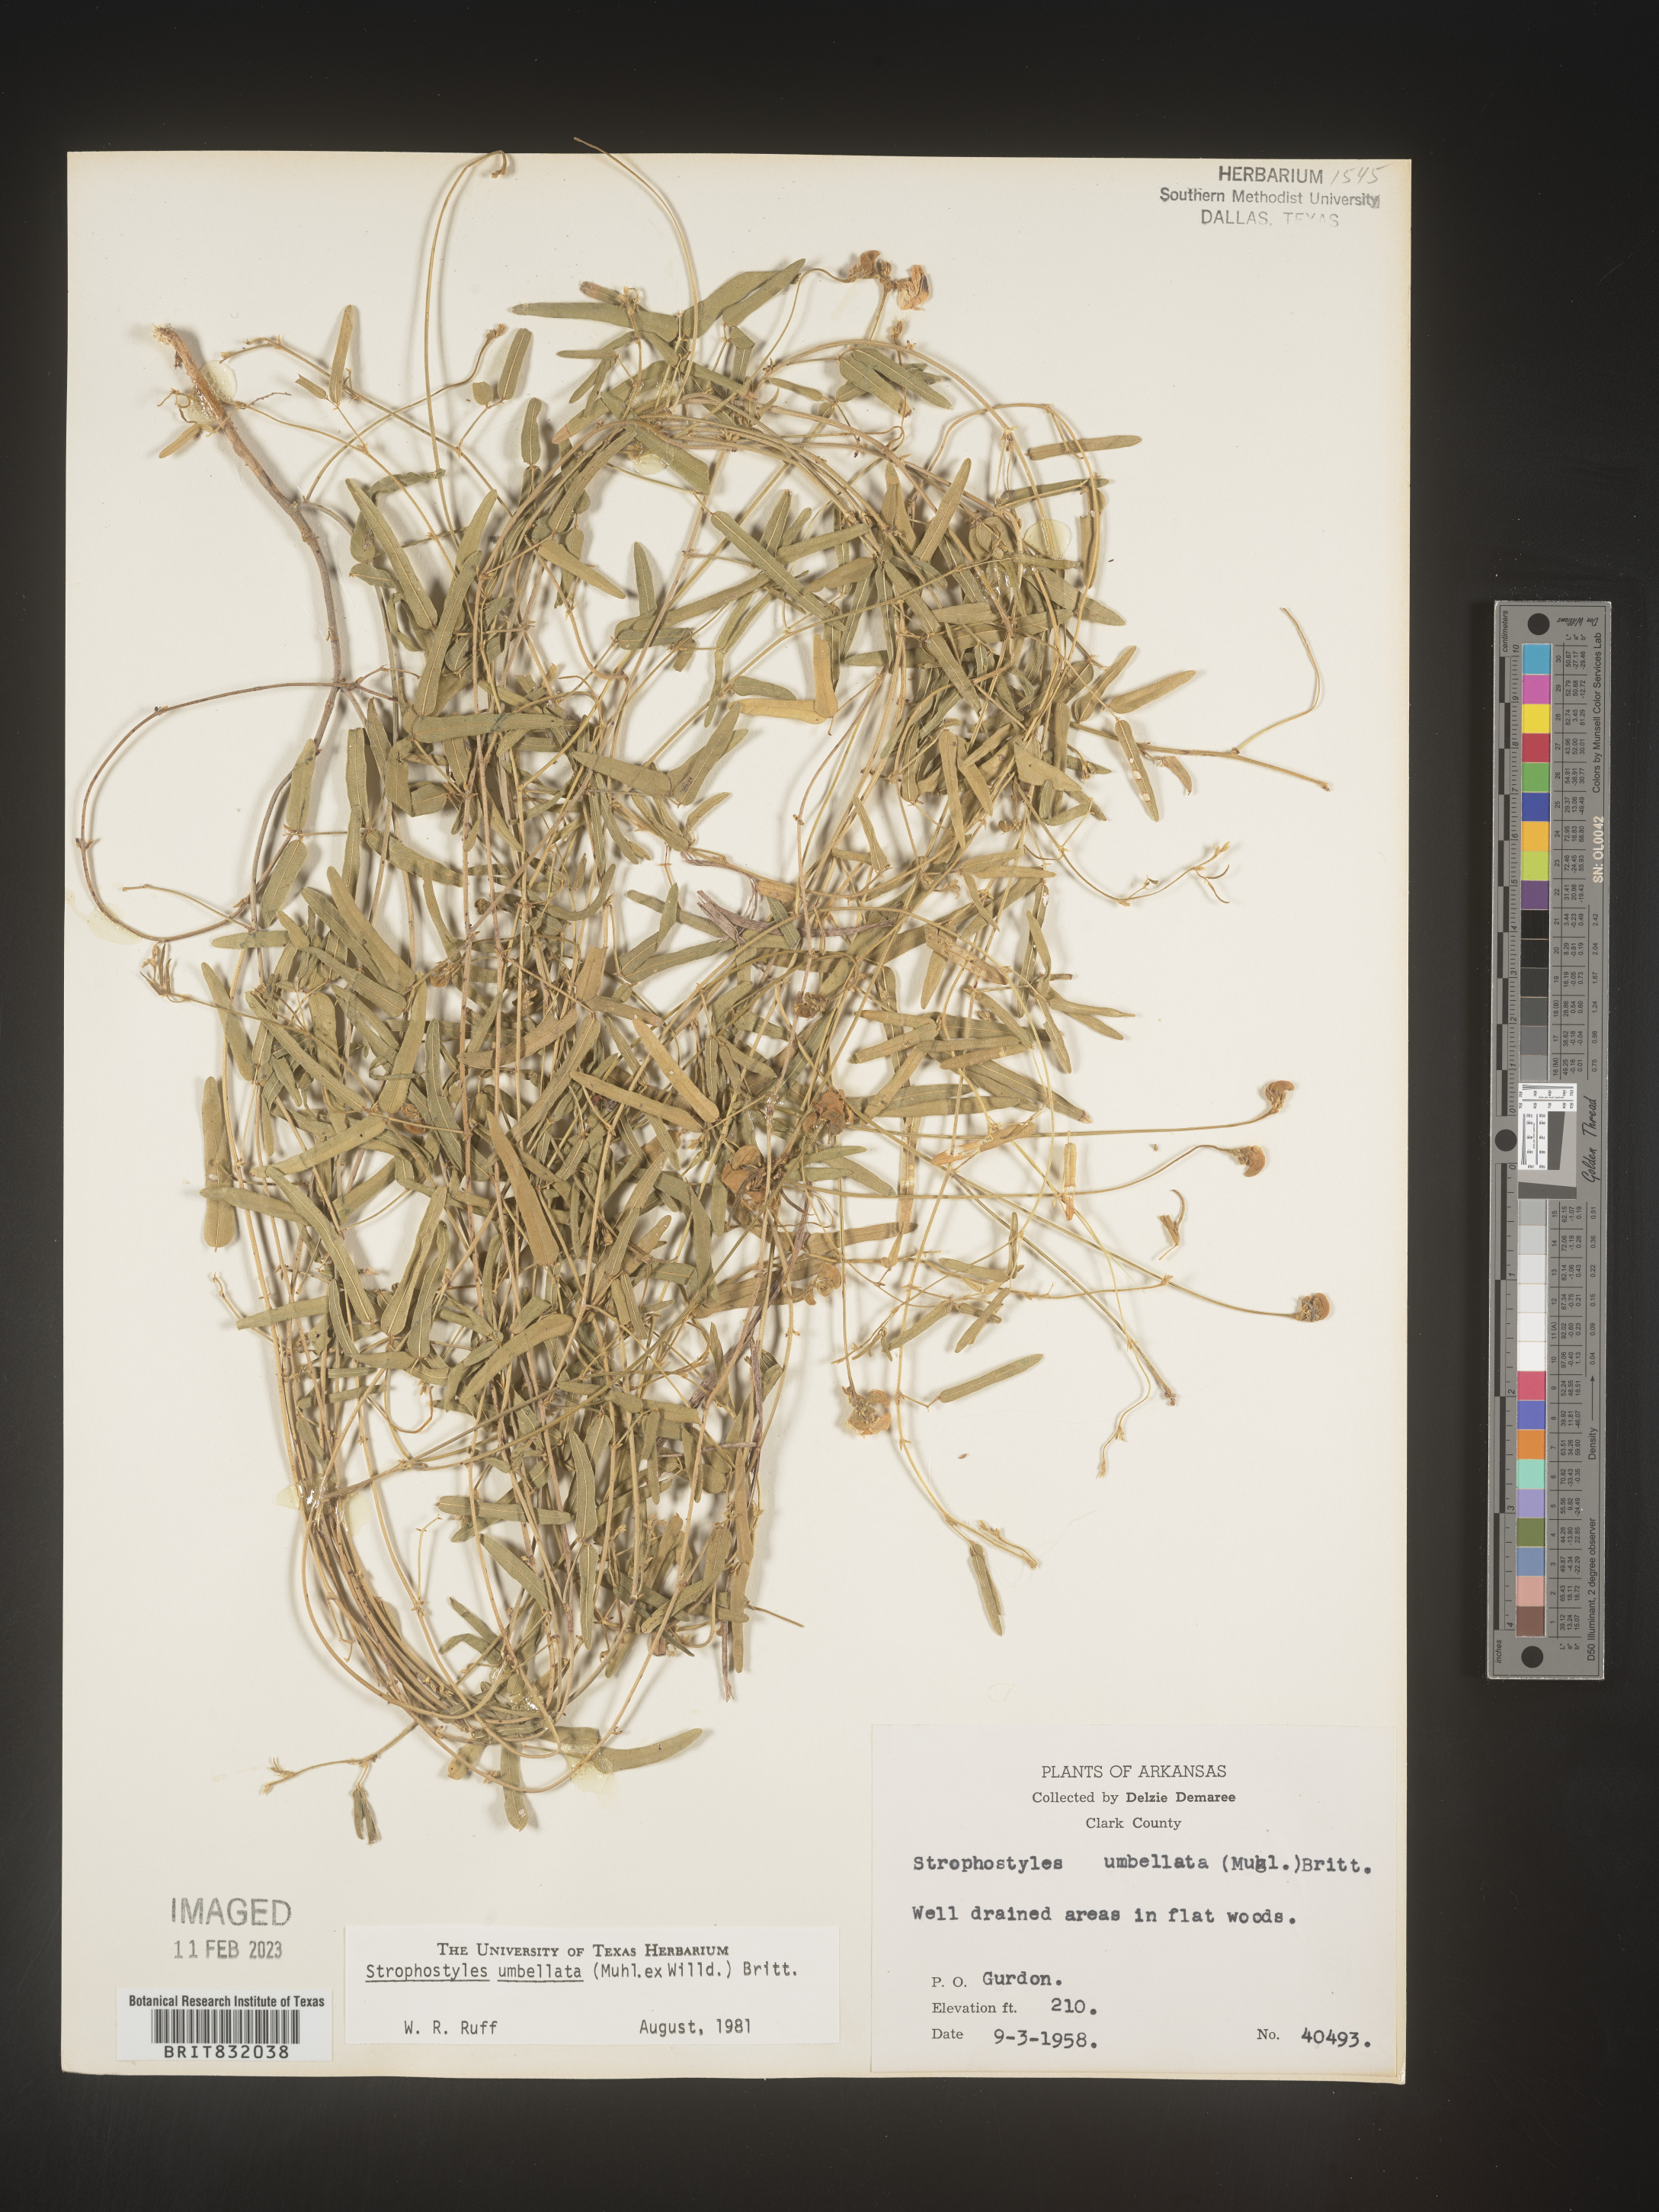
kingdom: Plantae
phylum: Tracheophyta
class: Magnoliopsida
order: Fabales
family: Fabaceae
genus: Strophostyles
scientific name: Strophostyles umbellata
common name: Perennial wild bean
